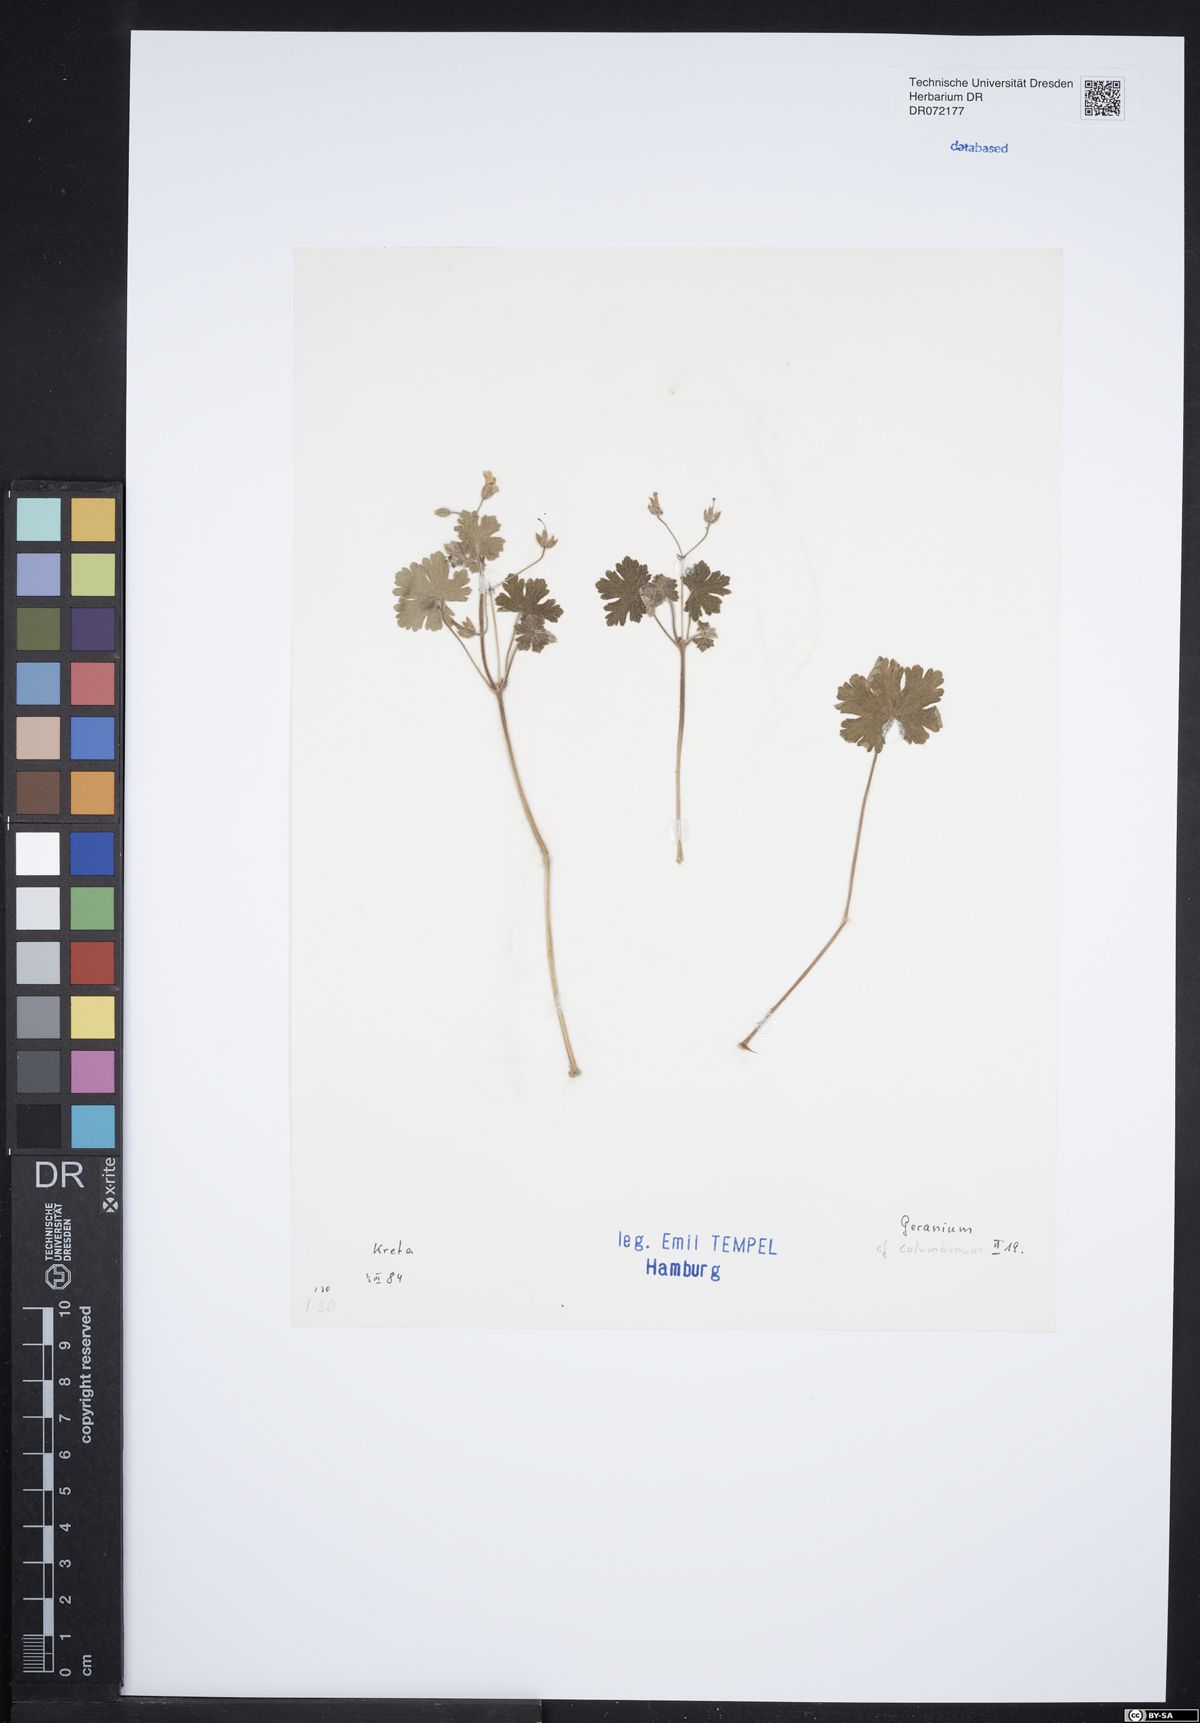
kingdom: Plantae
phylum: Tracheophyta
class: Magnoliopsida
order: Geraniales
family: Geraniaceae
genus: Geranium
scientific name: Geranium columbinum
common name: Long-stalked crane's-bill
